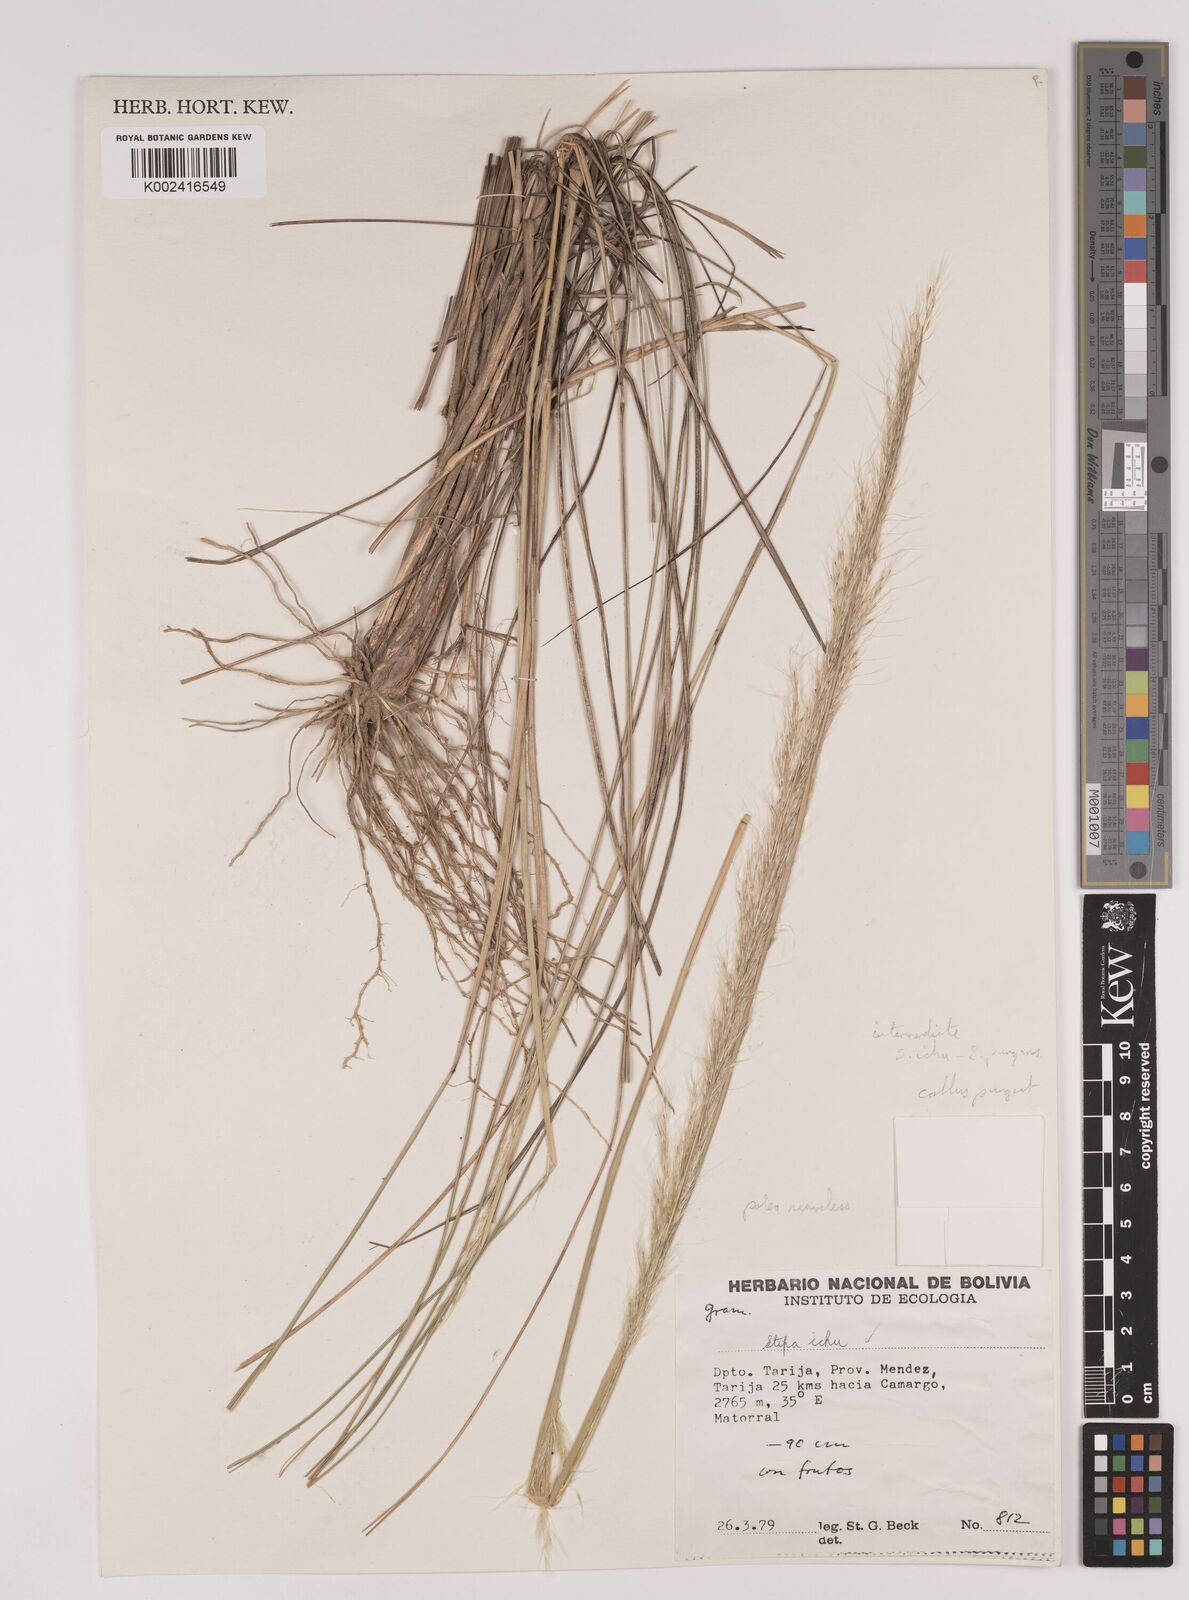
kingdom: Plantae
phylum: Tracheophyta
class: Liliopsida
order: Poales
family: Poaceae
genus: Jarava
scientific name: Jarava ichu
